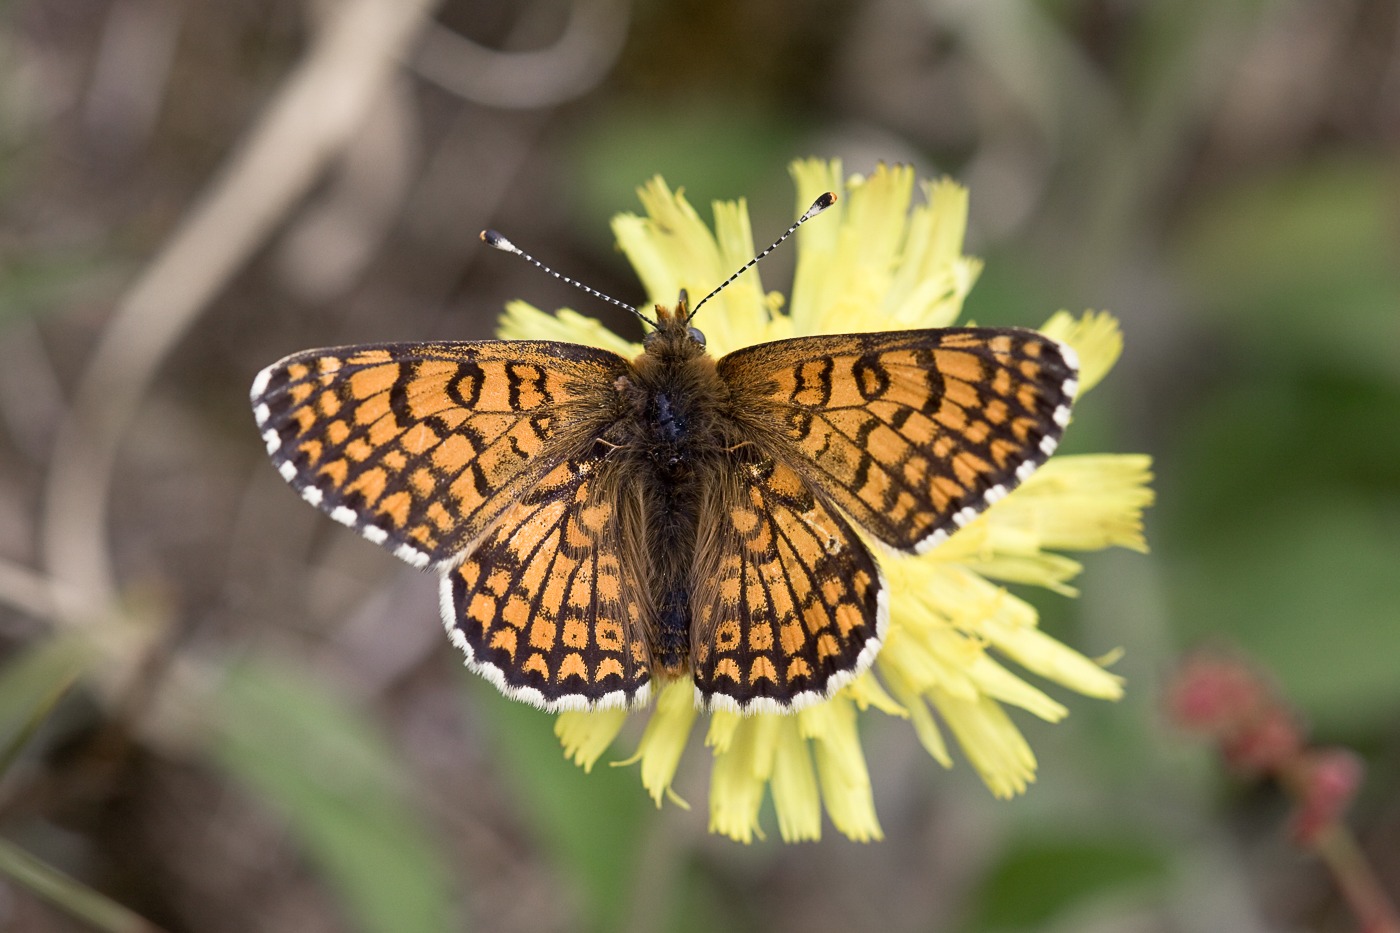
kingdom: Animalia
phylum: Arthropoda
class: Insecta
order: Lepidoptera
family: Nymphalidae
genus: Melitaea
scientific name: Melitaea cinxia
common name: Okkergul pletvinge
